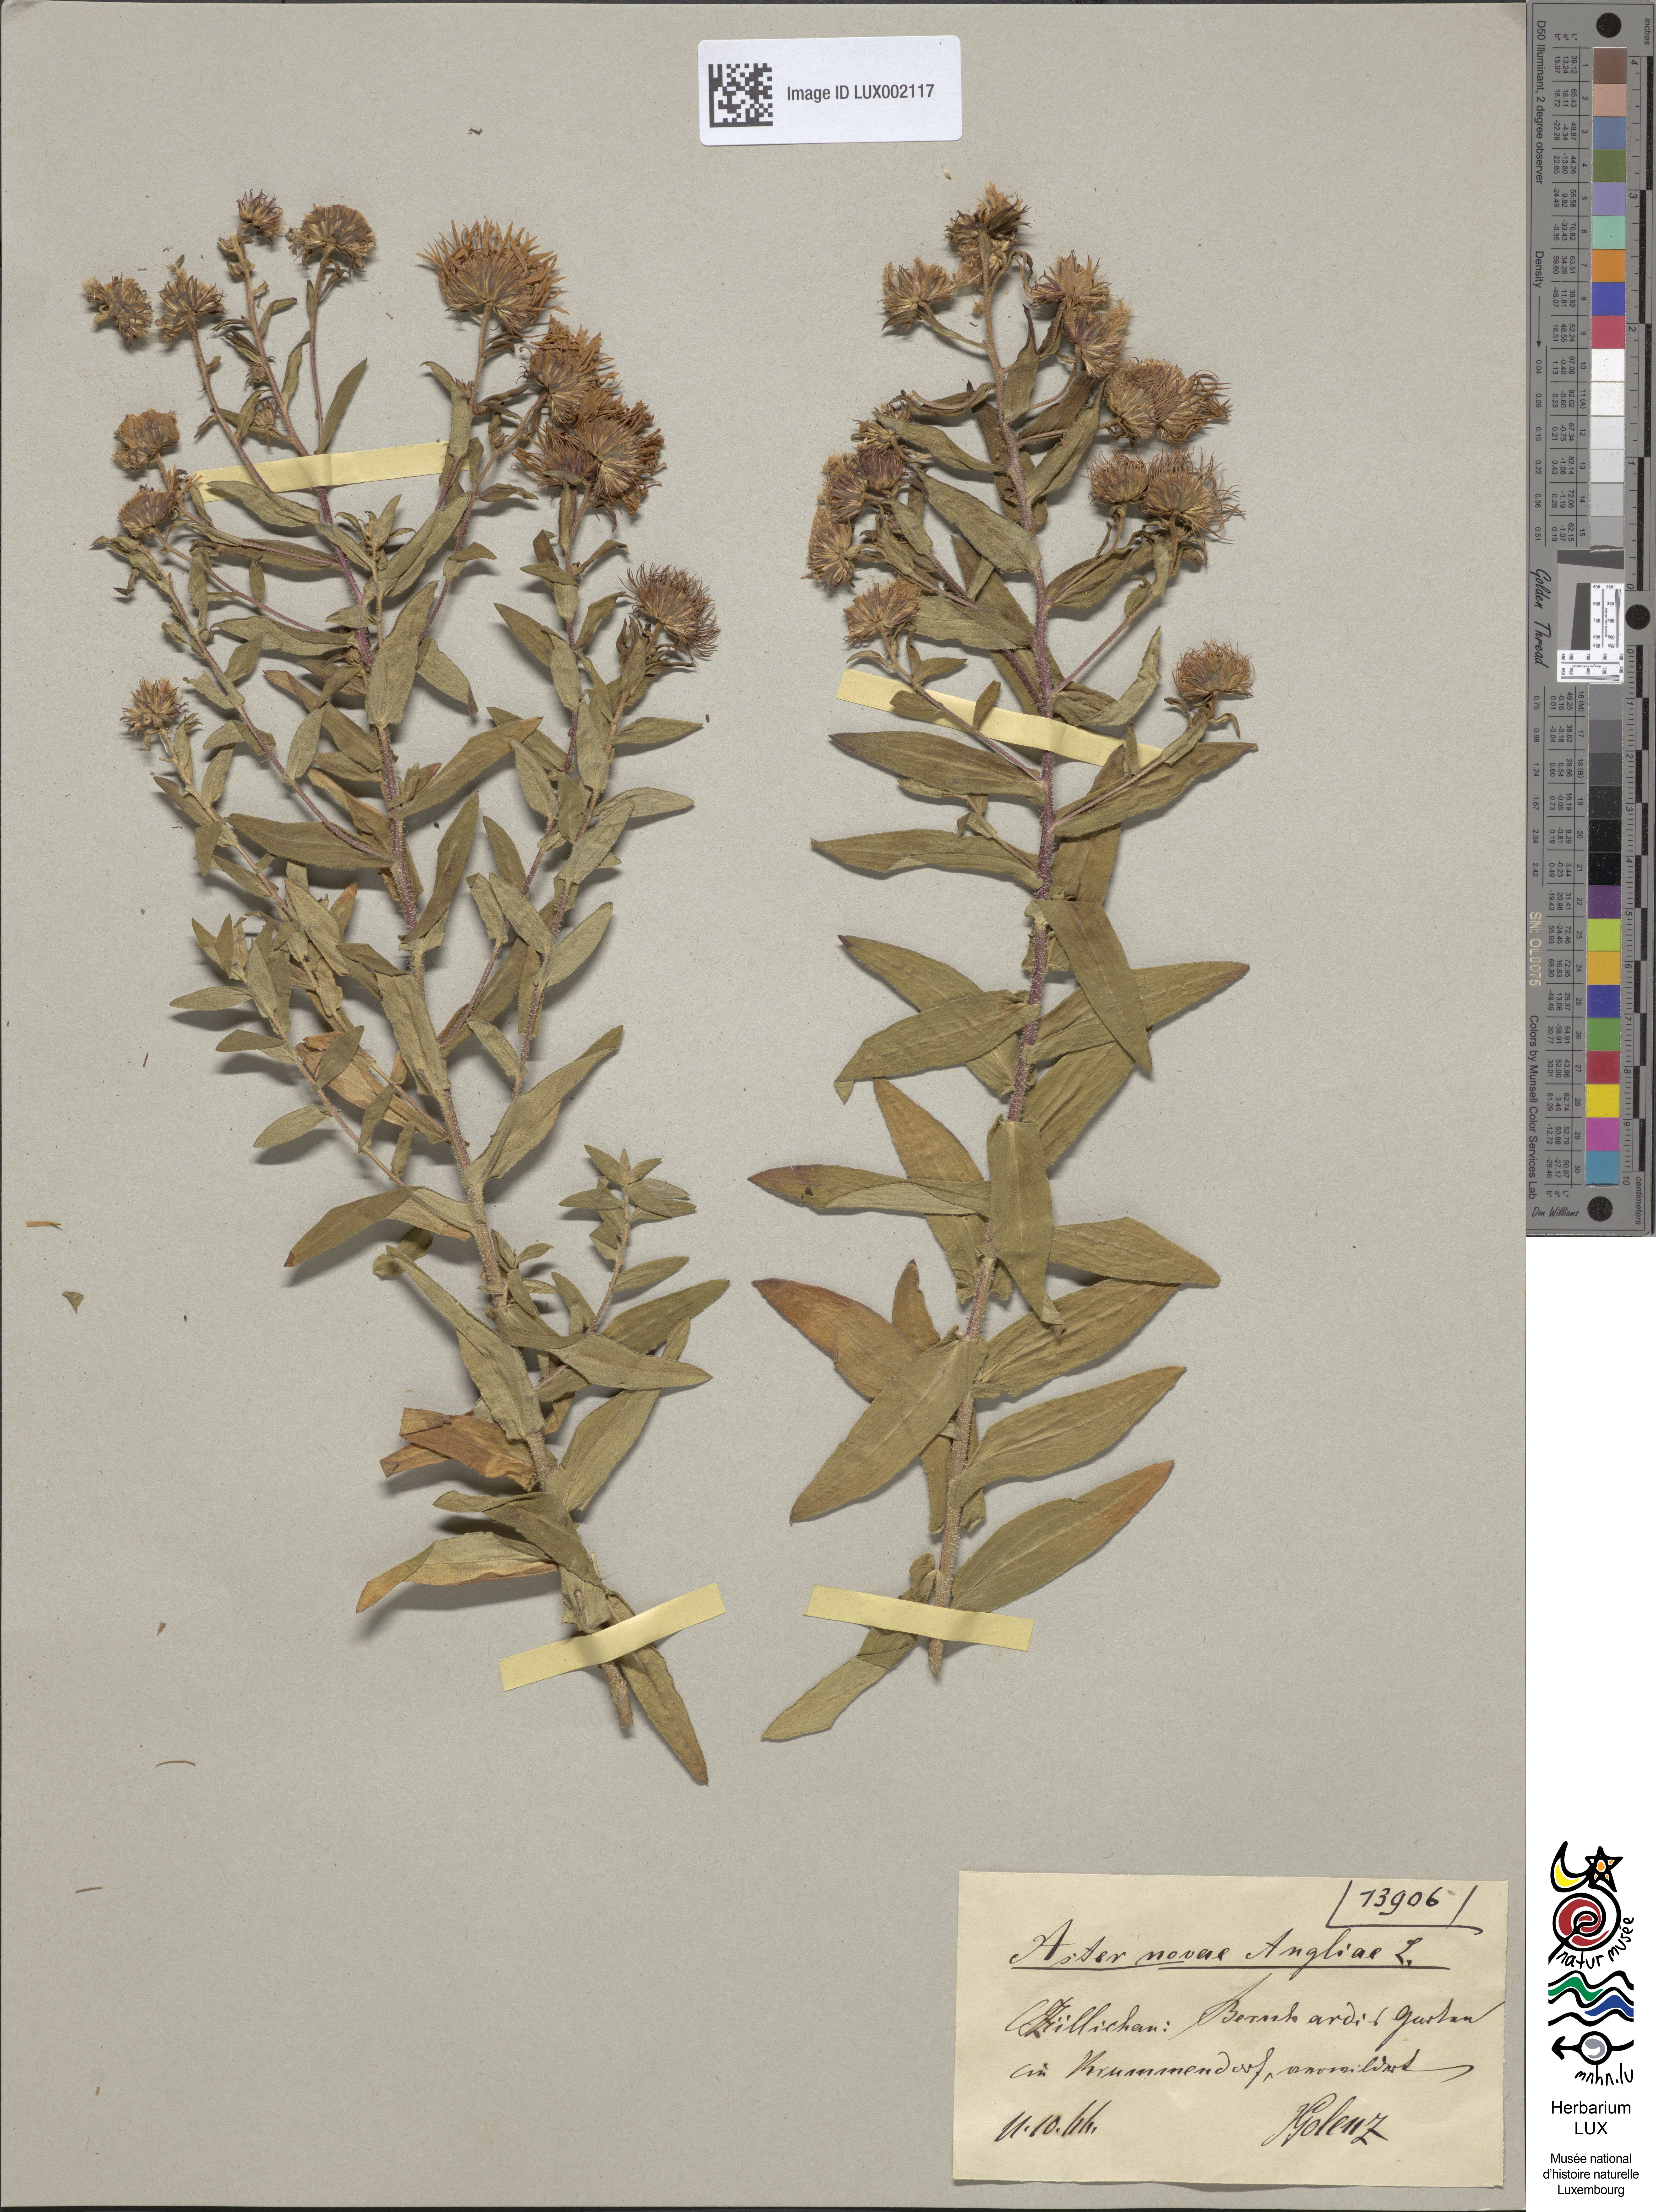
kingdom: Plantae
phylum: Tracheophyta
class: Magnoliopsida
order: Asterales
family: Asteraceae
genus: Symphyotrichum
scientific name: Symphyotrichum novae-angliae
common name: Michaelmas daisy
